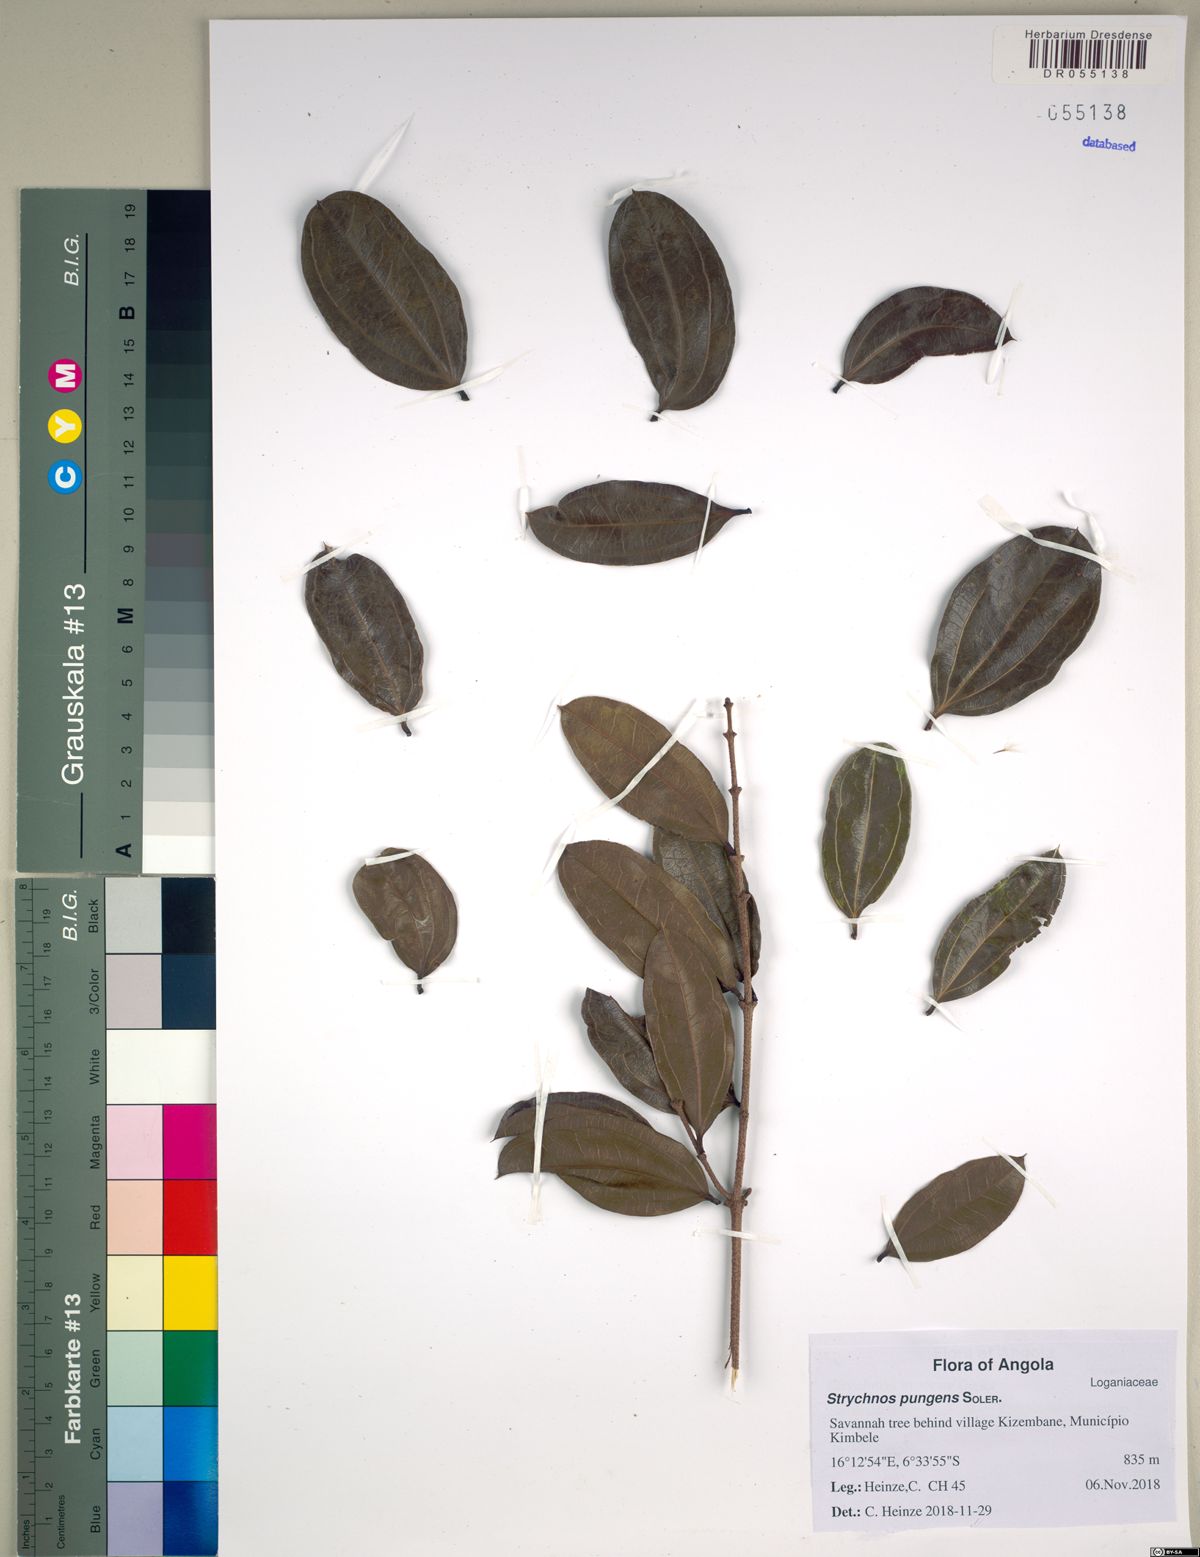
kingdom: Plantae
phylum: Tracheophyta
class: Magnoliopsida
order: Gentianales
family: Loganiaceae
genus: Strychnos
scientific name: Strychnos pungens
